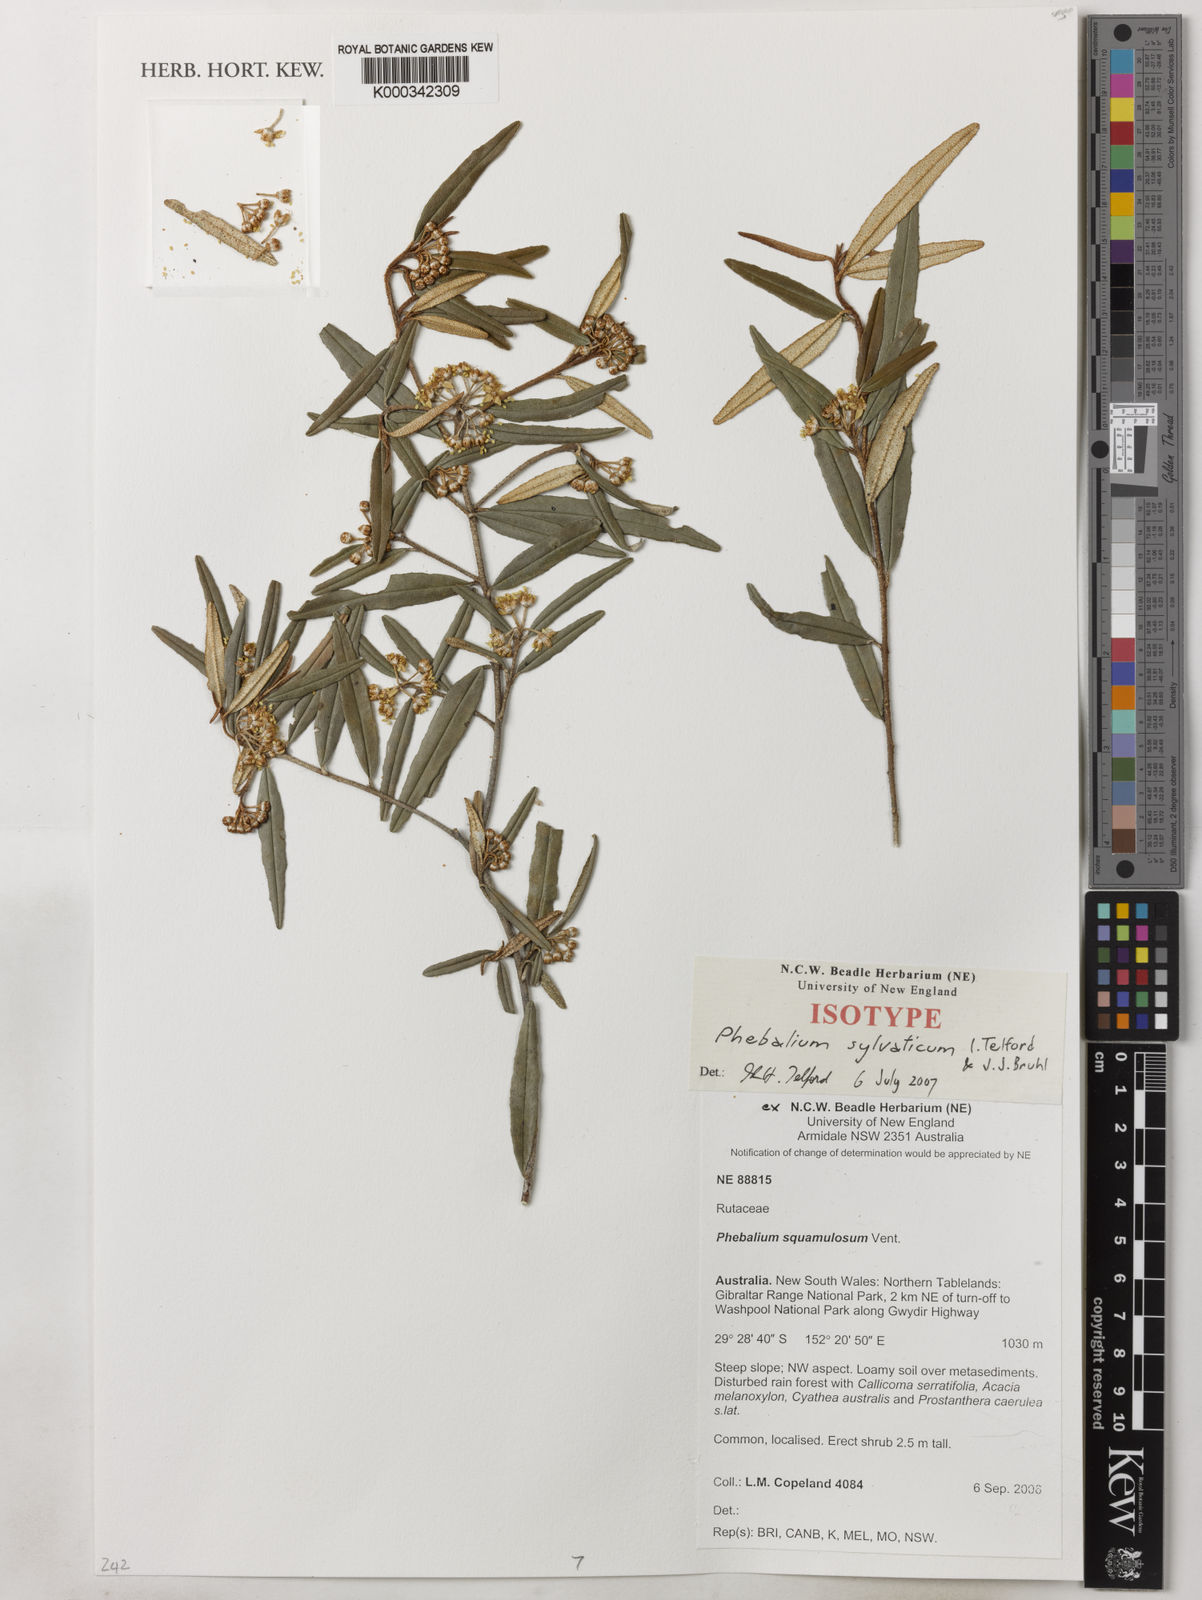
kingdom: Plantae
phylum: Tracheophyta
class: Magnoliopsida
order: Sapindales
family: Rutaceae
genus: Phebalium
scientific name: Phebalium
